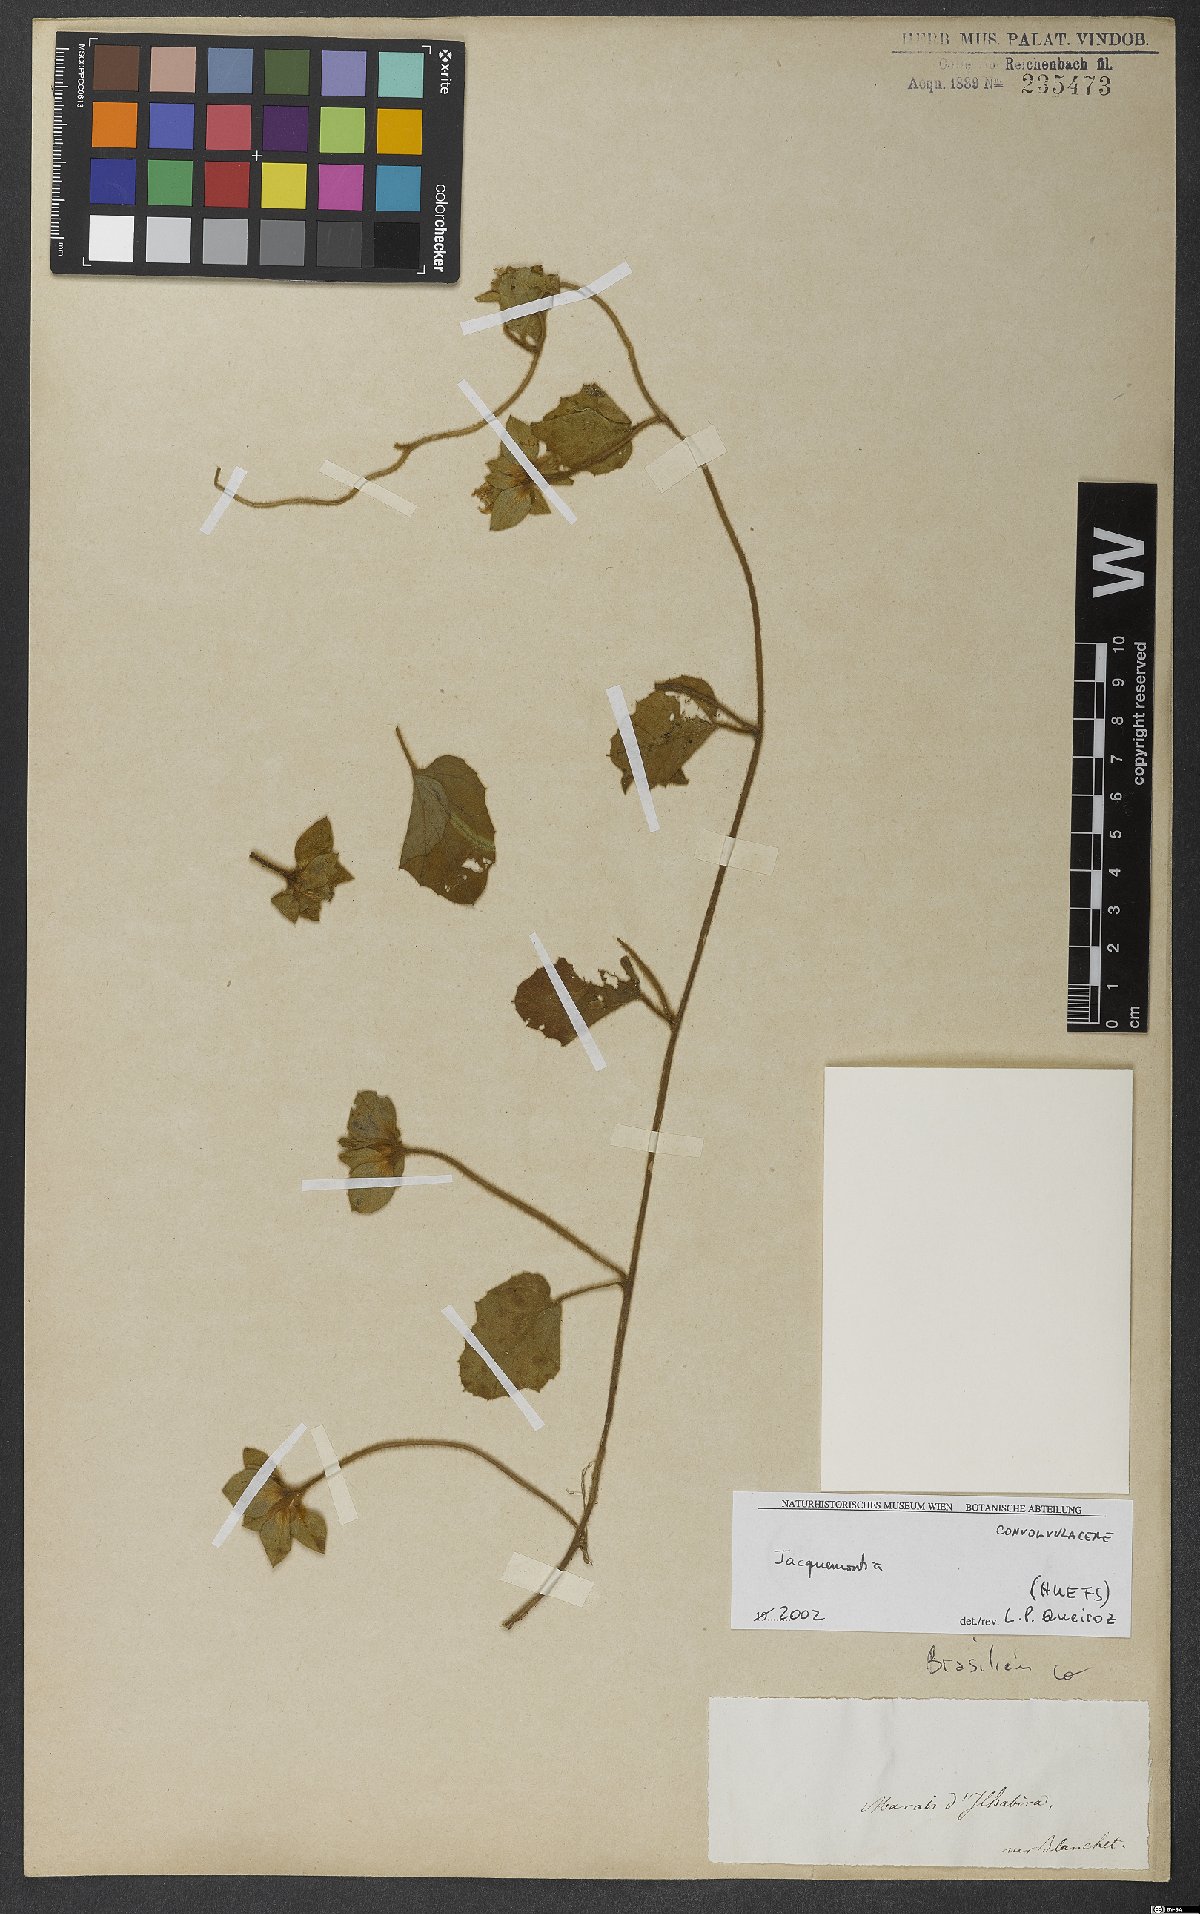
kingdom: Plantae
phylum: Tracheophyta
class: Magnoliopsida
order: Solanales
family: Convolvulaceae
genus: Jacquemontia
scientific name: Jacquemontia
